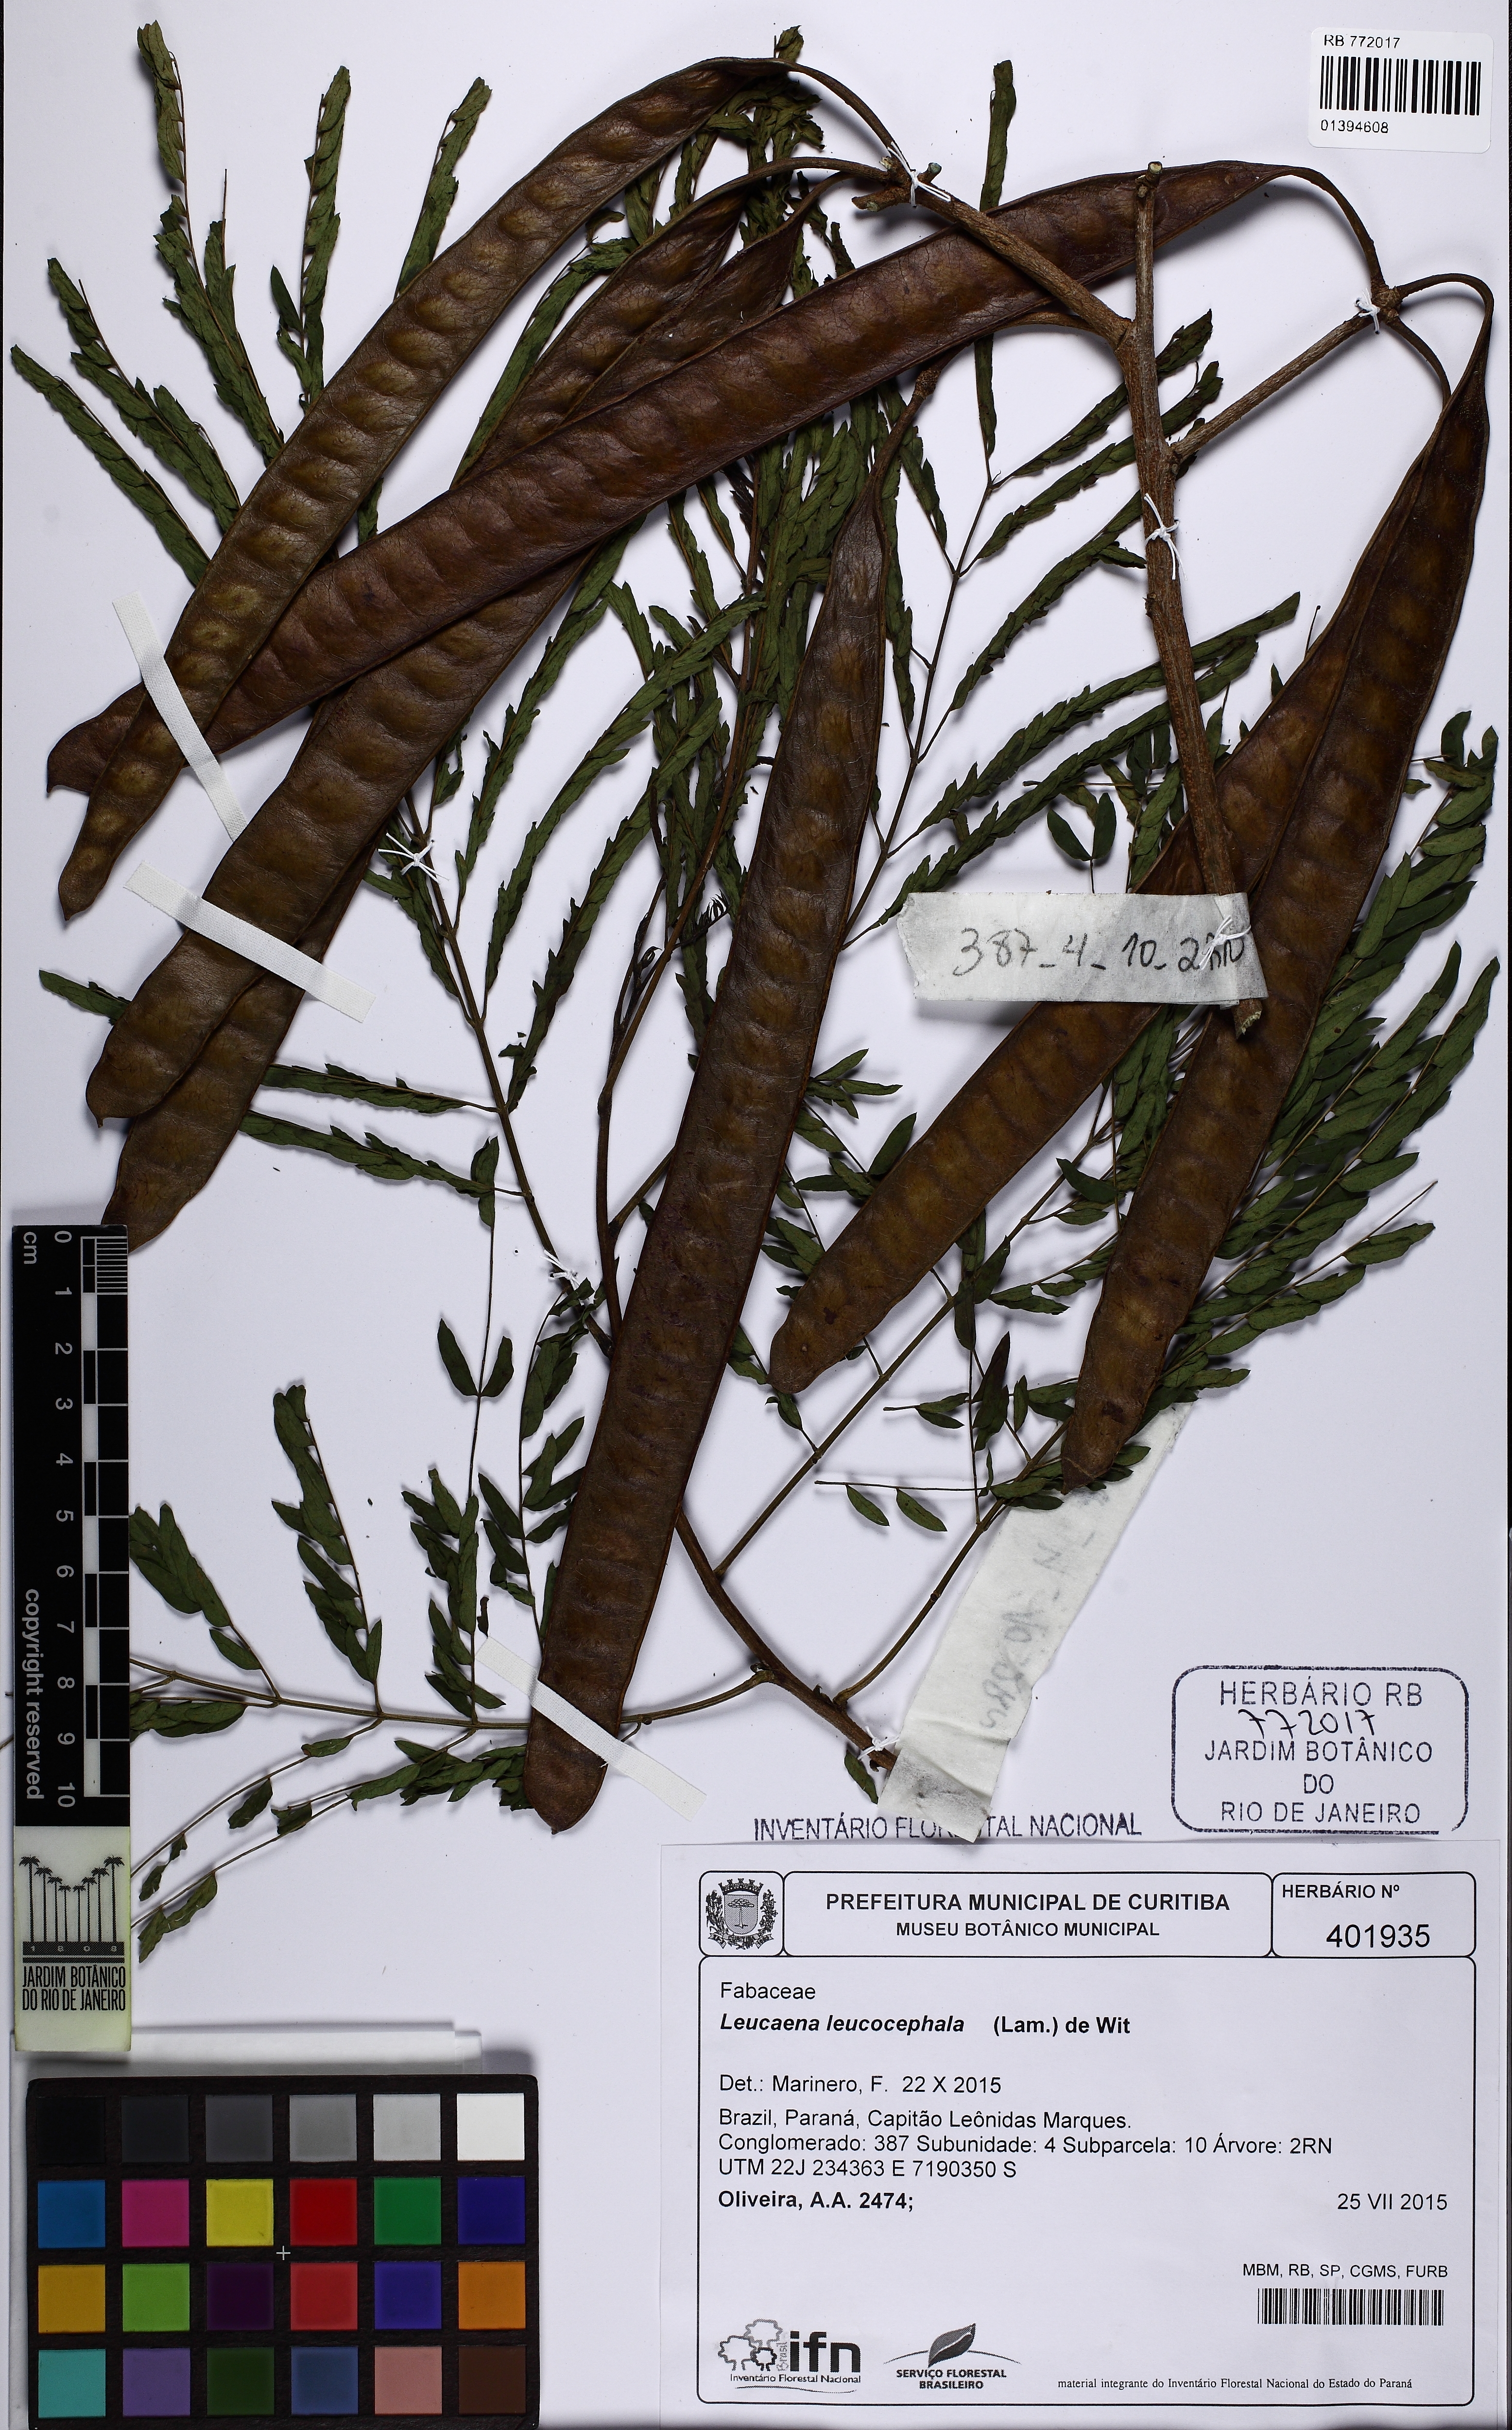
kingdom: Plantae
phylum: Tracheophyta
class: Magnoliopsida
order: Fabales
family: Fabaceae
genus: Leucaena
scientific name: Leucaena leucocephala
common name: White leadtree
